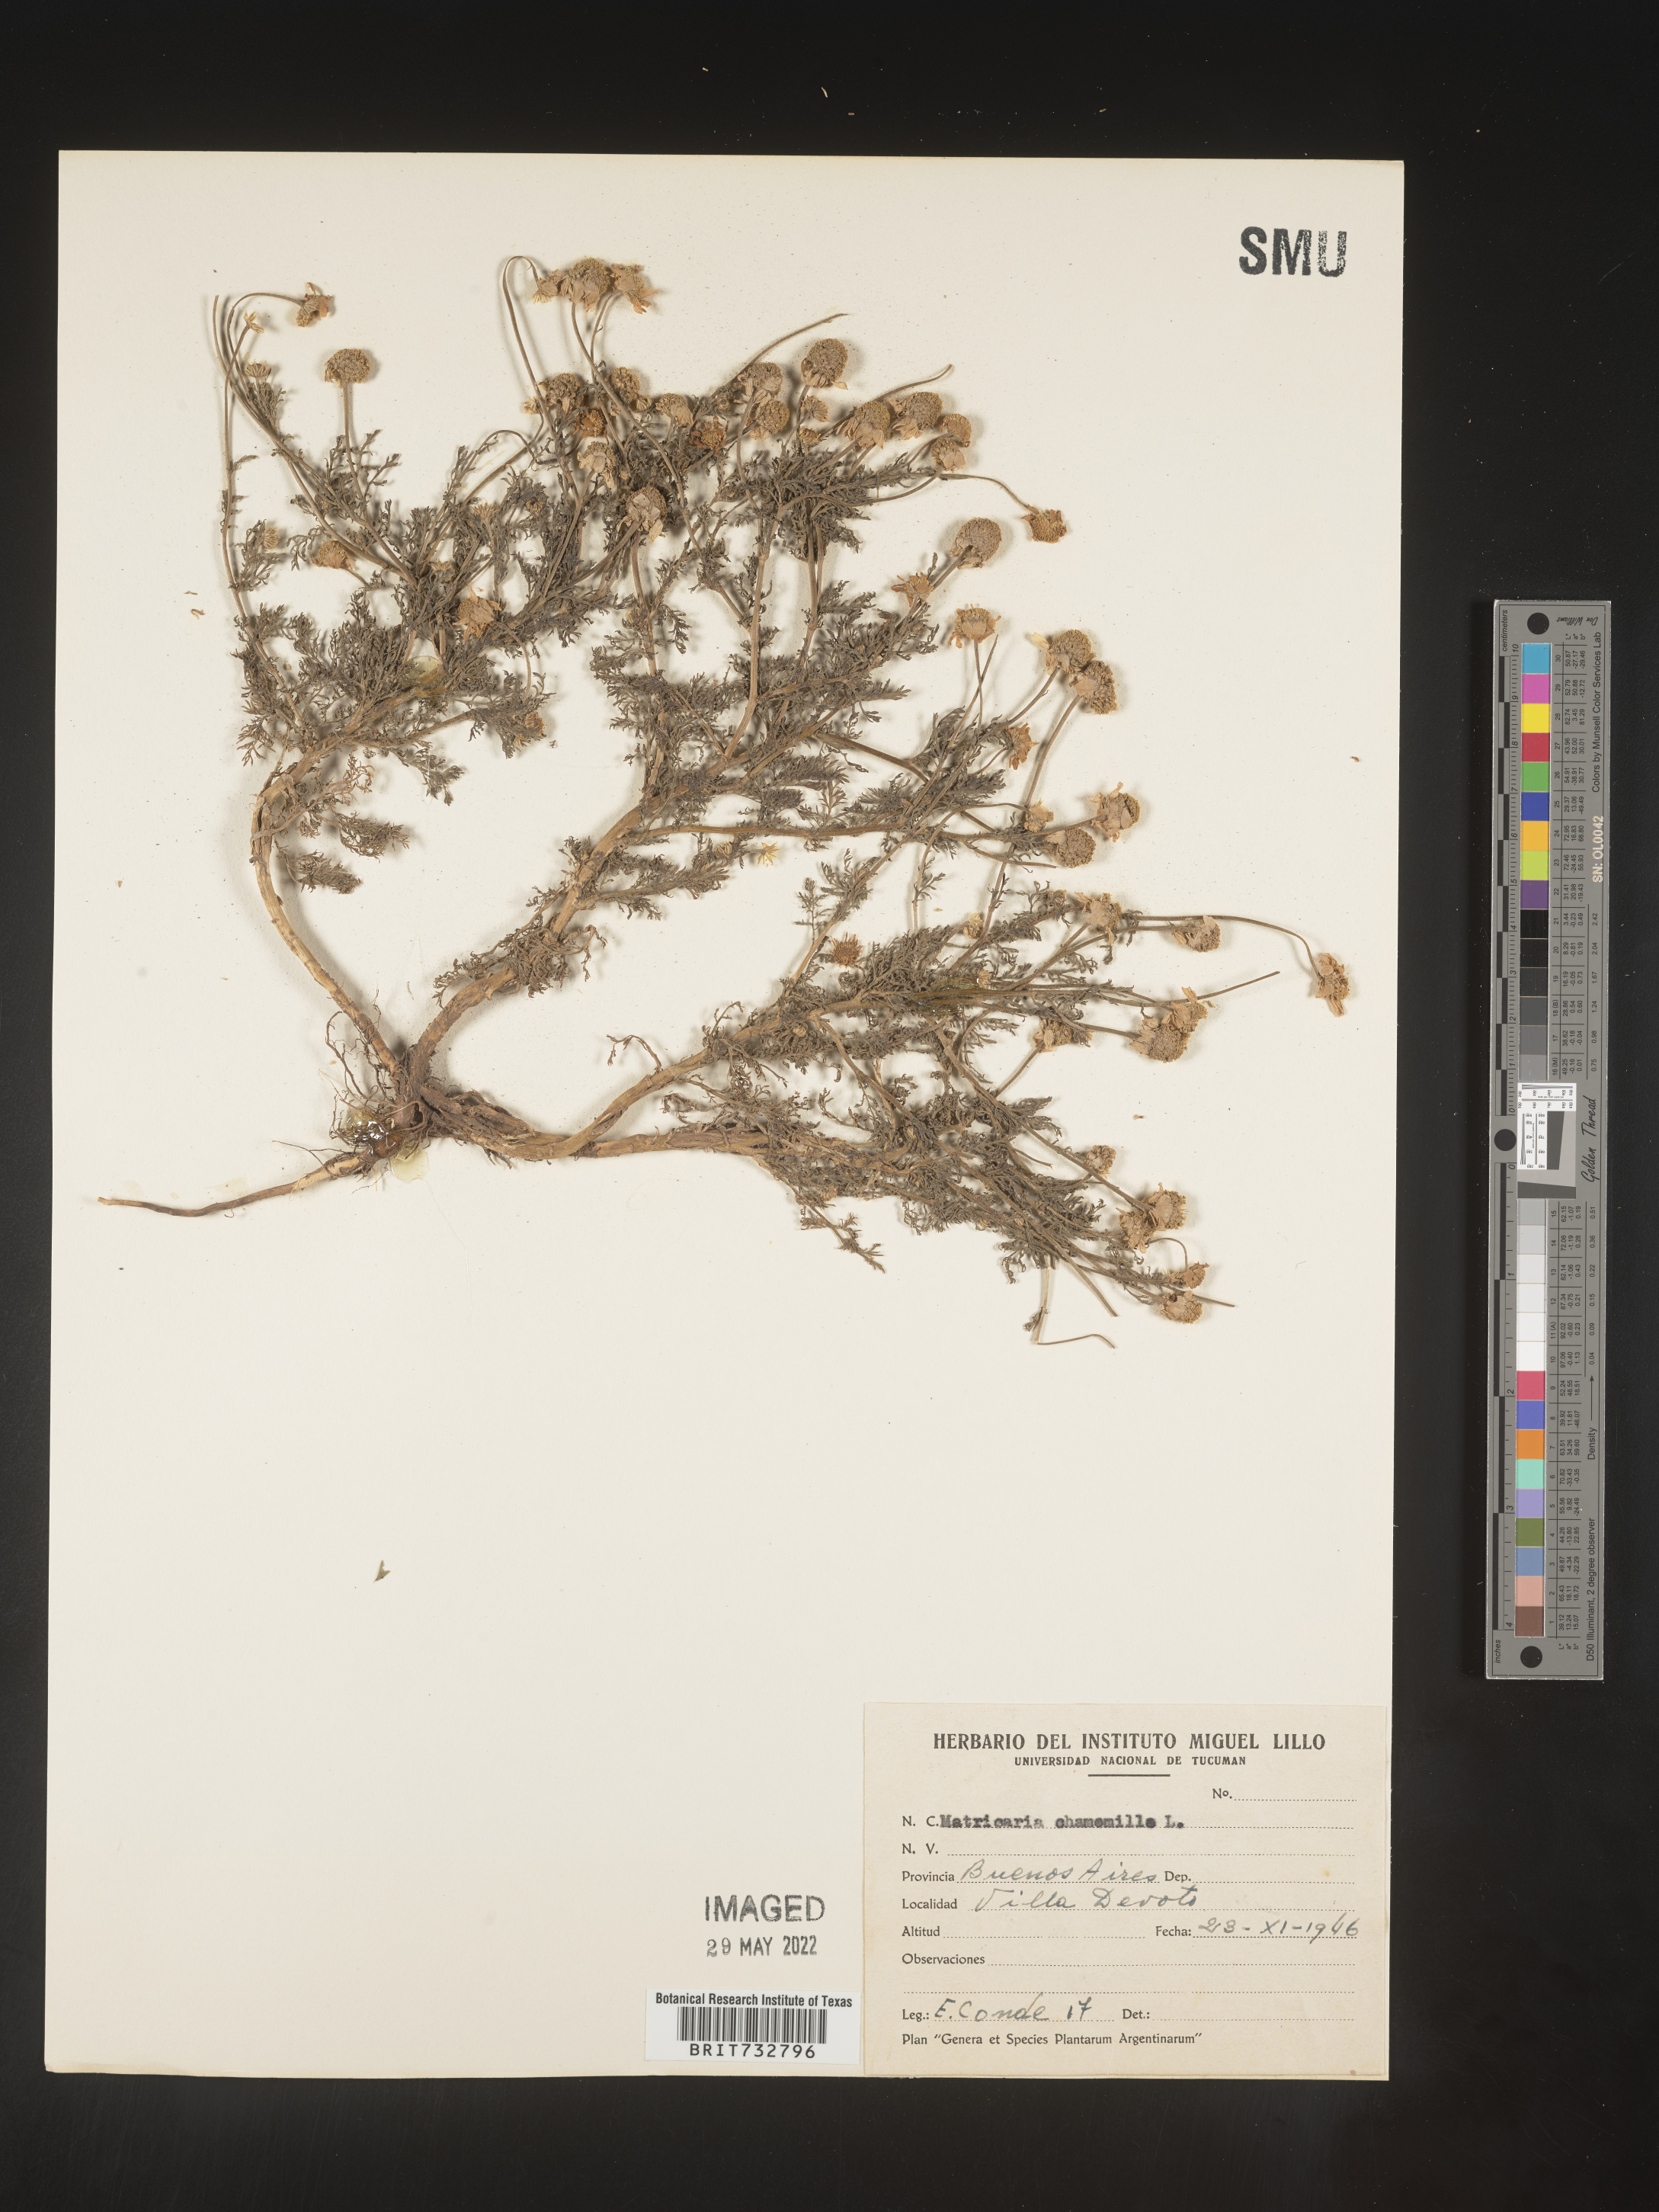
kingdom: Plantae
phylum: Tracheophyta
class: Magnoliopsida
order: Asterales
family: Asteraceae
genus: Matricaria
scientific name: Matricaria
